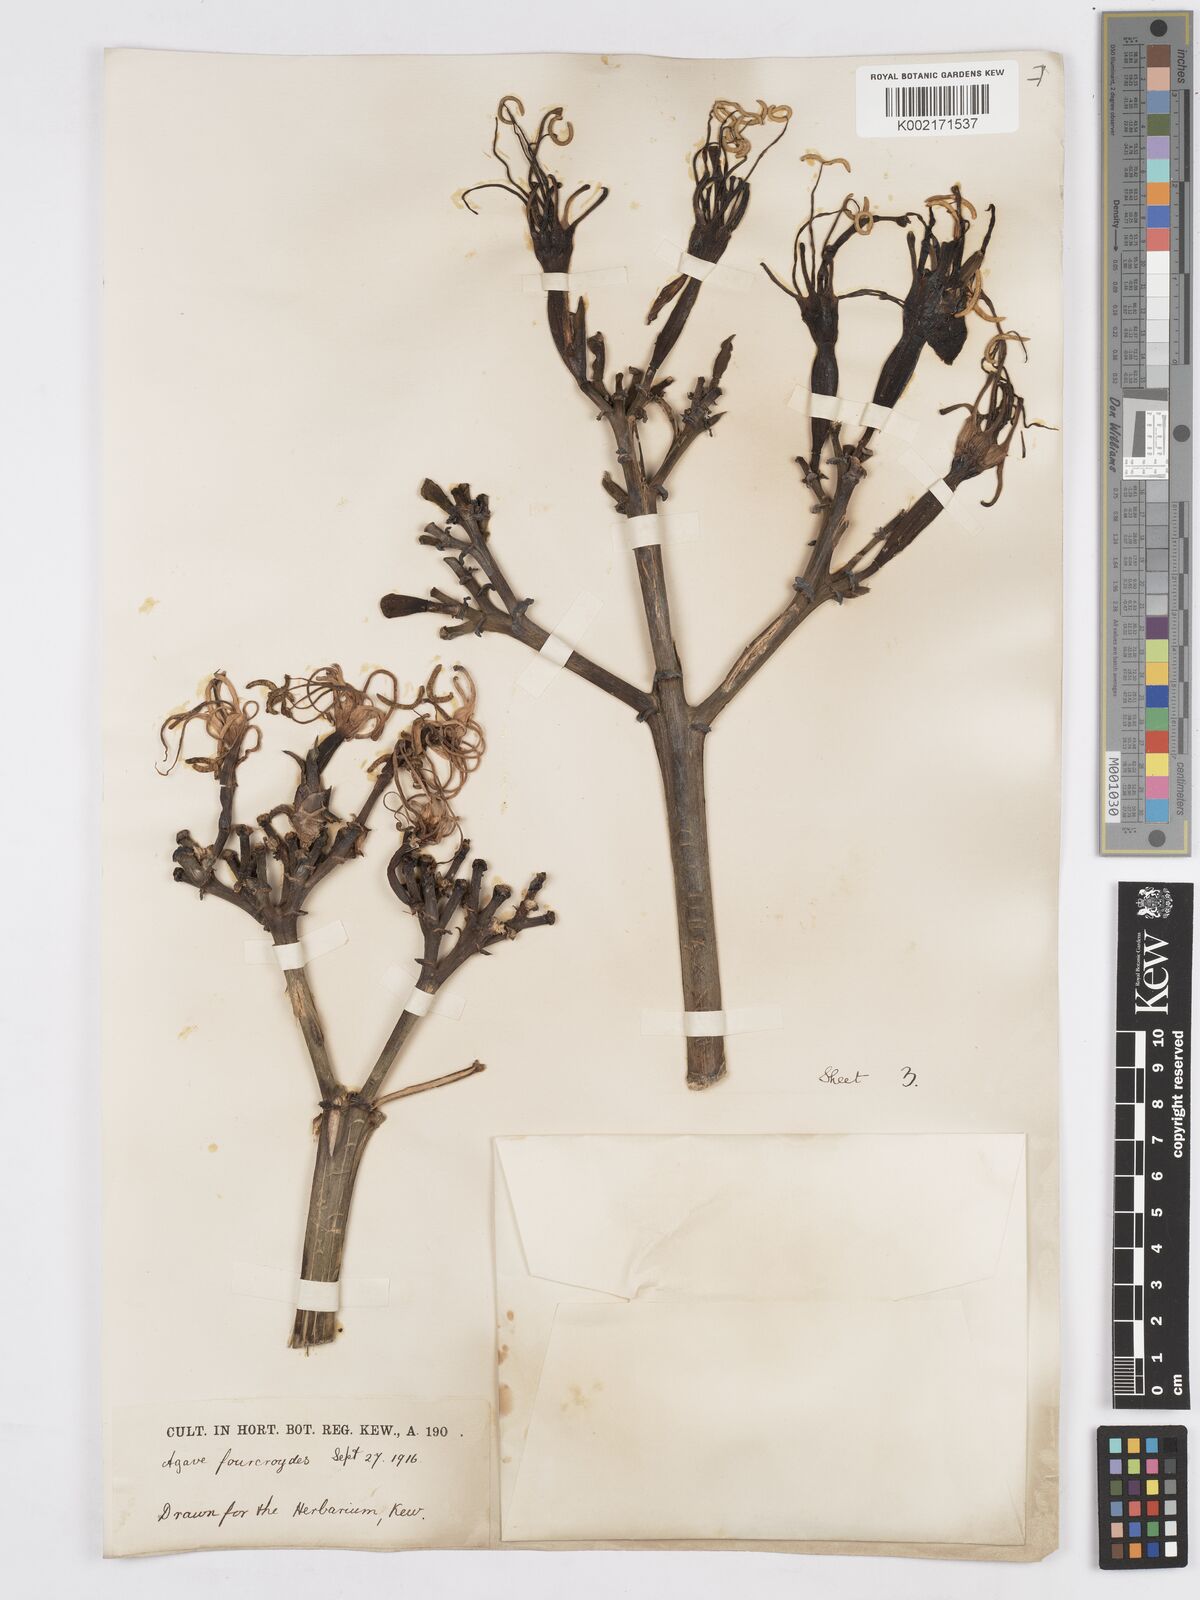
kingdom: Plantae
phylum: Tracheophyta
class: Liliopsida
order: Asparagales
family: Asparagaceae
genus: Agave
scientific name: Agave fourcroydes
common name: Henequen
